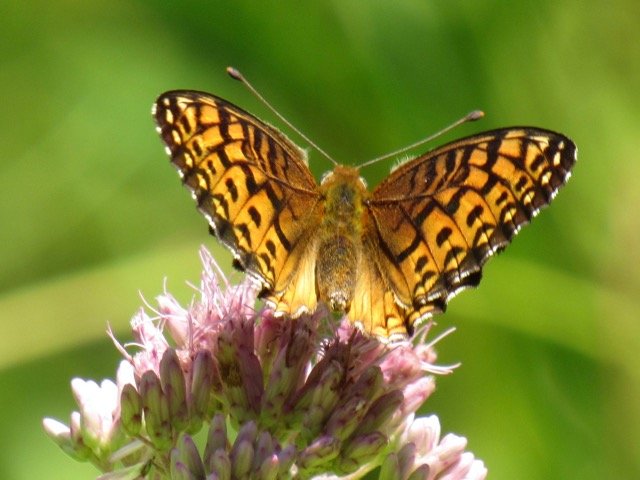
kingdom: Animalia
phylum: Arthropoda
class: Insecta
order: Lepidoptera
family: Nymphalidae
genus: Speyeria
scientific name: Speyeria atlantis
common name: Atlantis Fritillary
